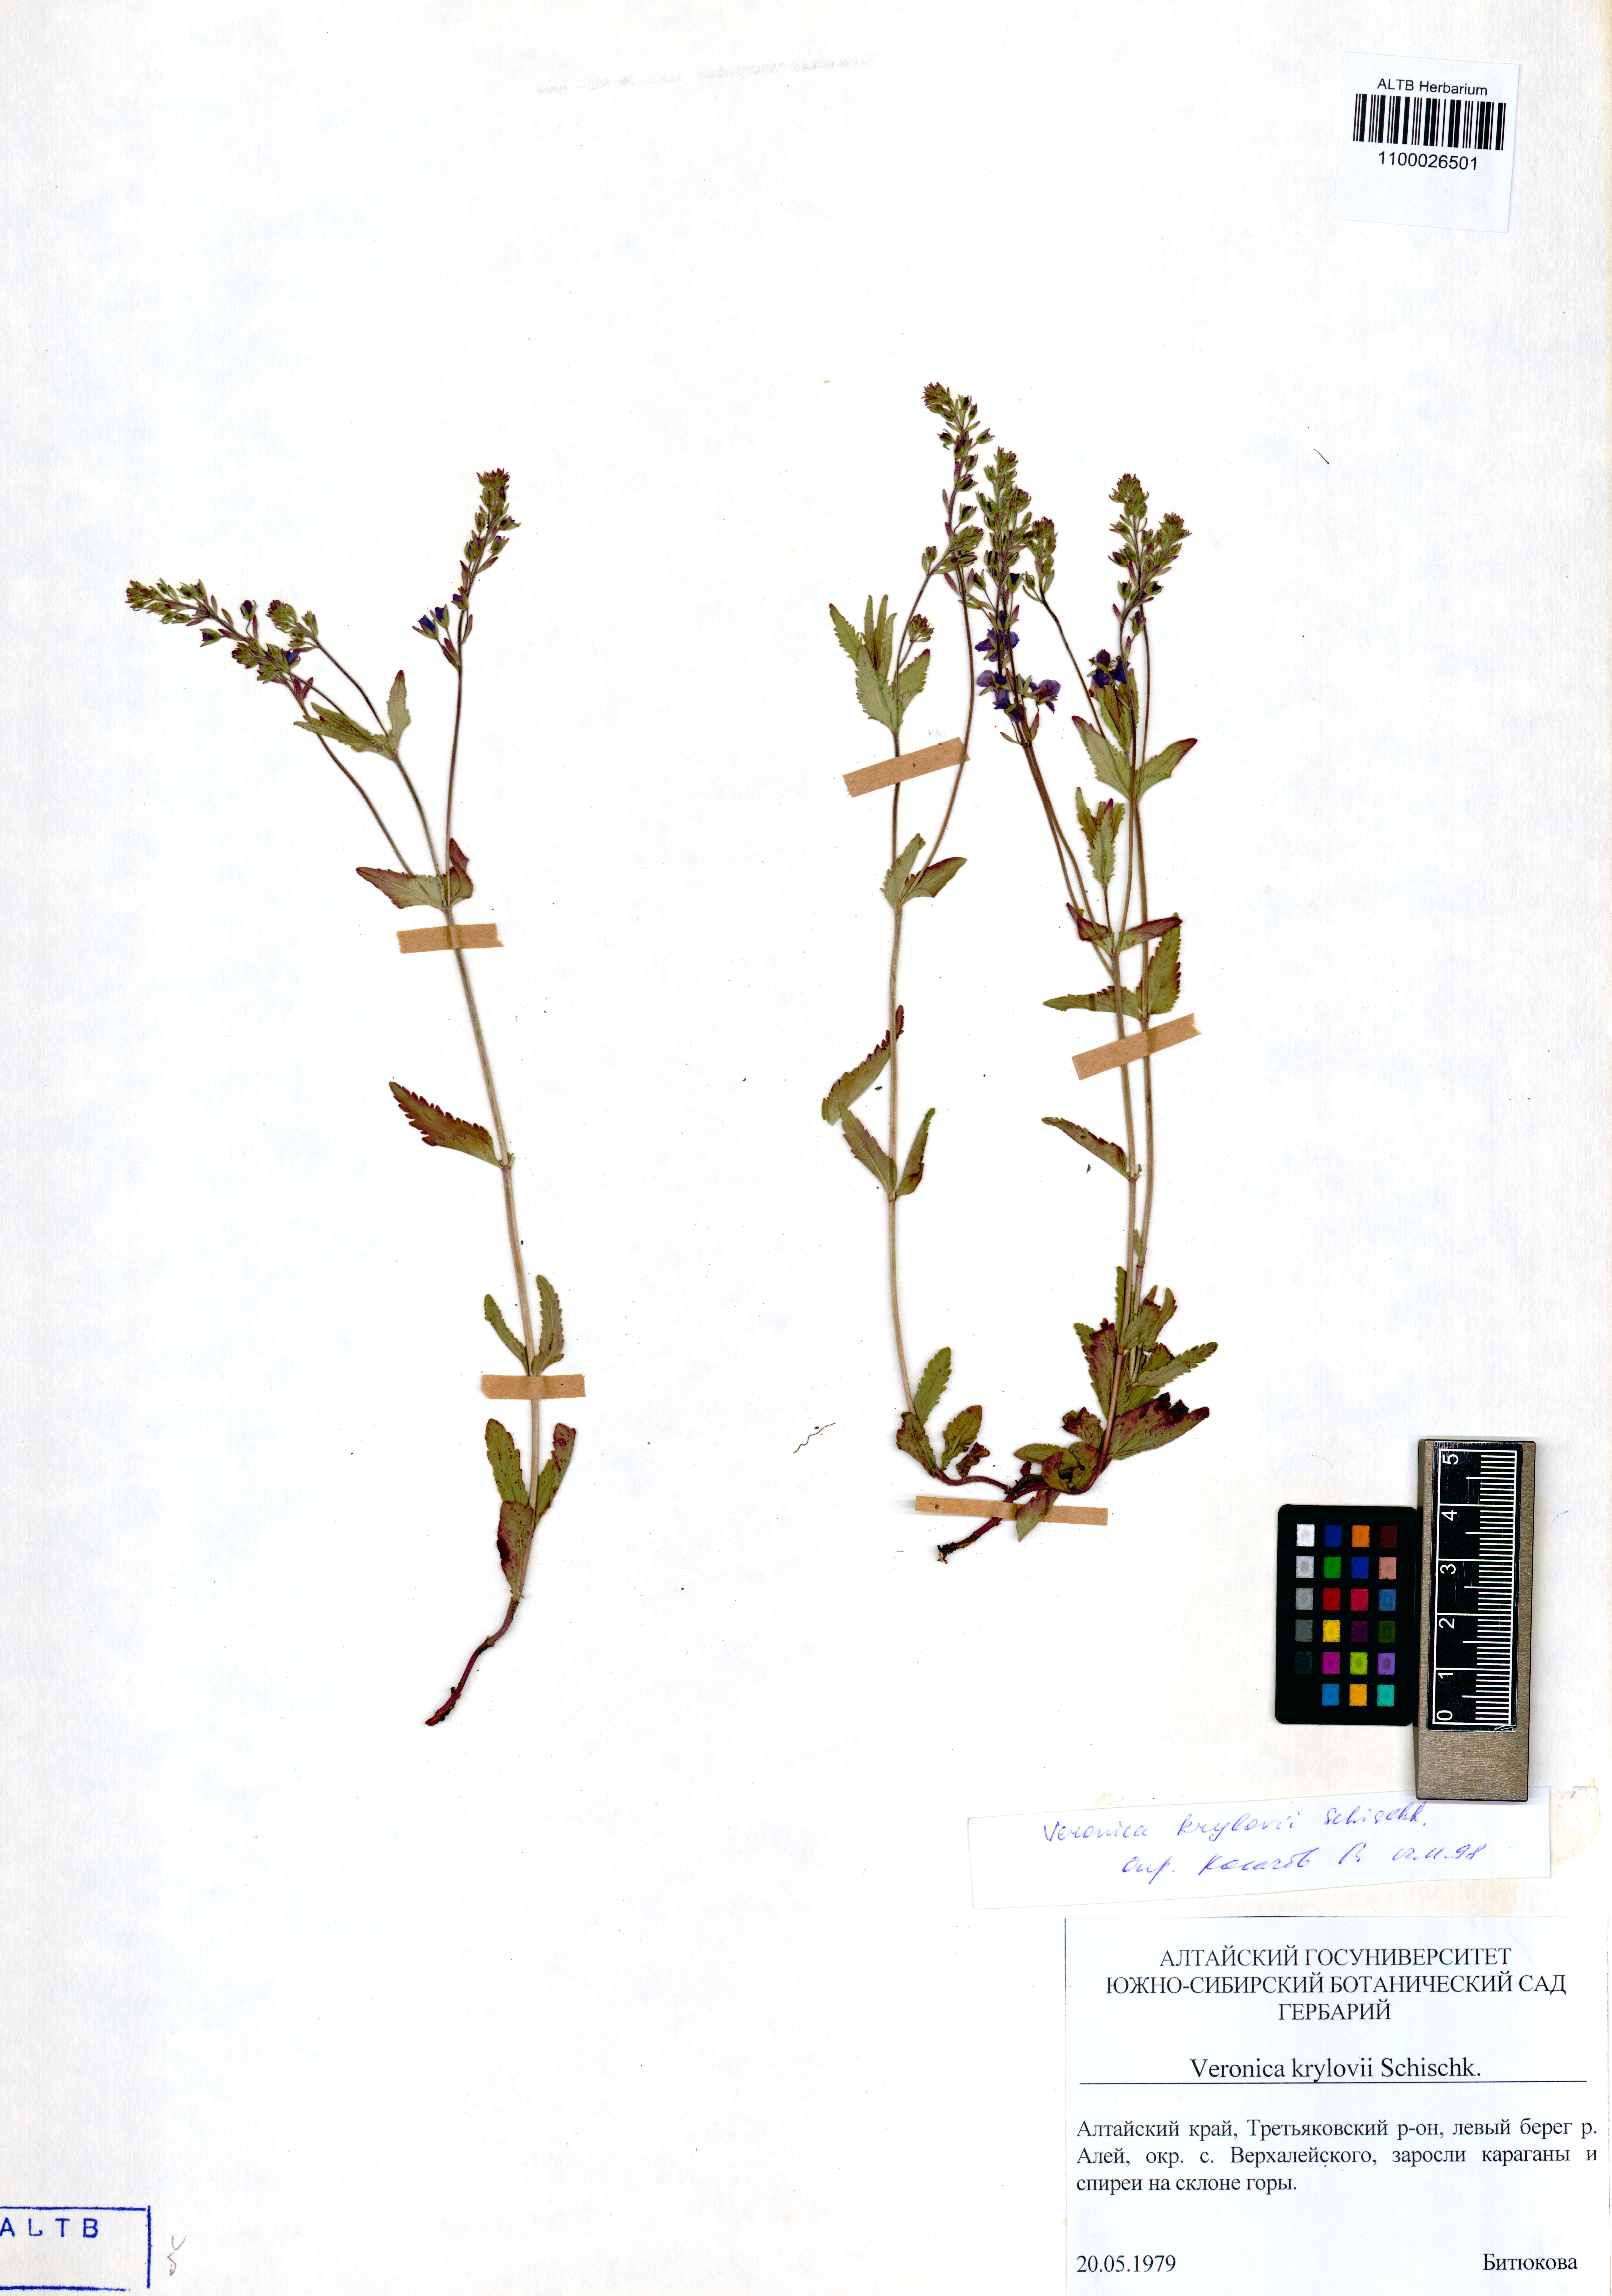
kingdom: Plantae
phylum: Tracheophyta
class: Magnoliopsida
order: Lamiales
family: Plantaginaceae
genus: Veronica
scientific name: Veronica krylovii
